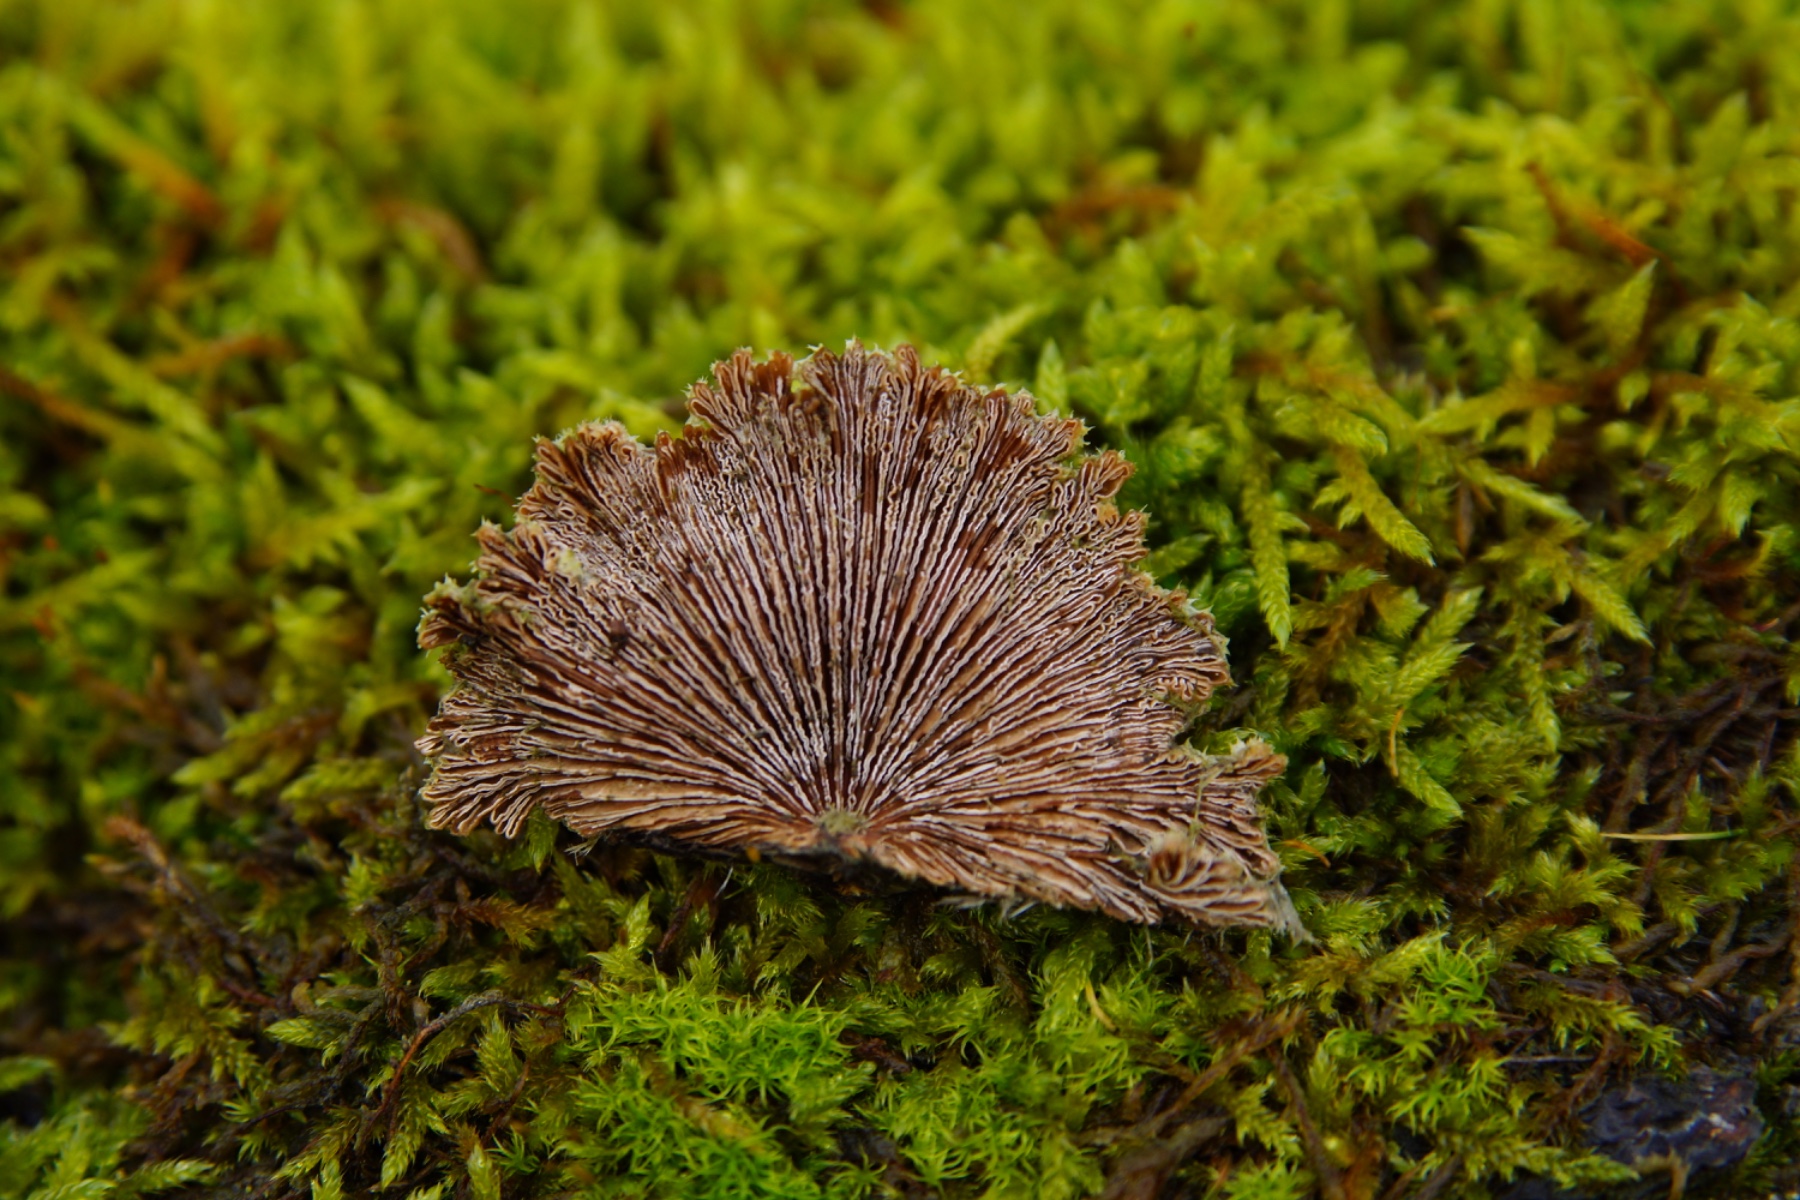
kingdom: Fungi
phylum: Basidiomycota
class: Agaricomycetes
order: Agaricales
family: Schizophyllaceae
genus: Schizophyllum
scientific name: Schizophyllum commune
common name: kløvblad
